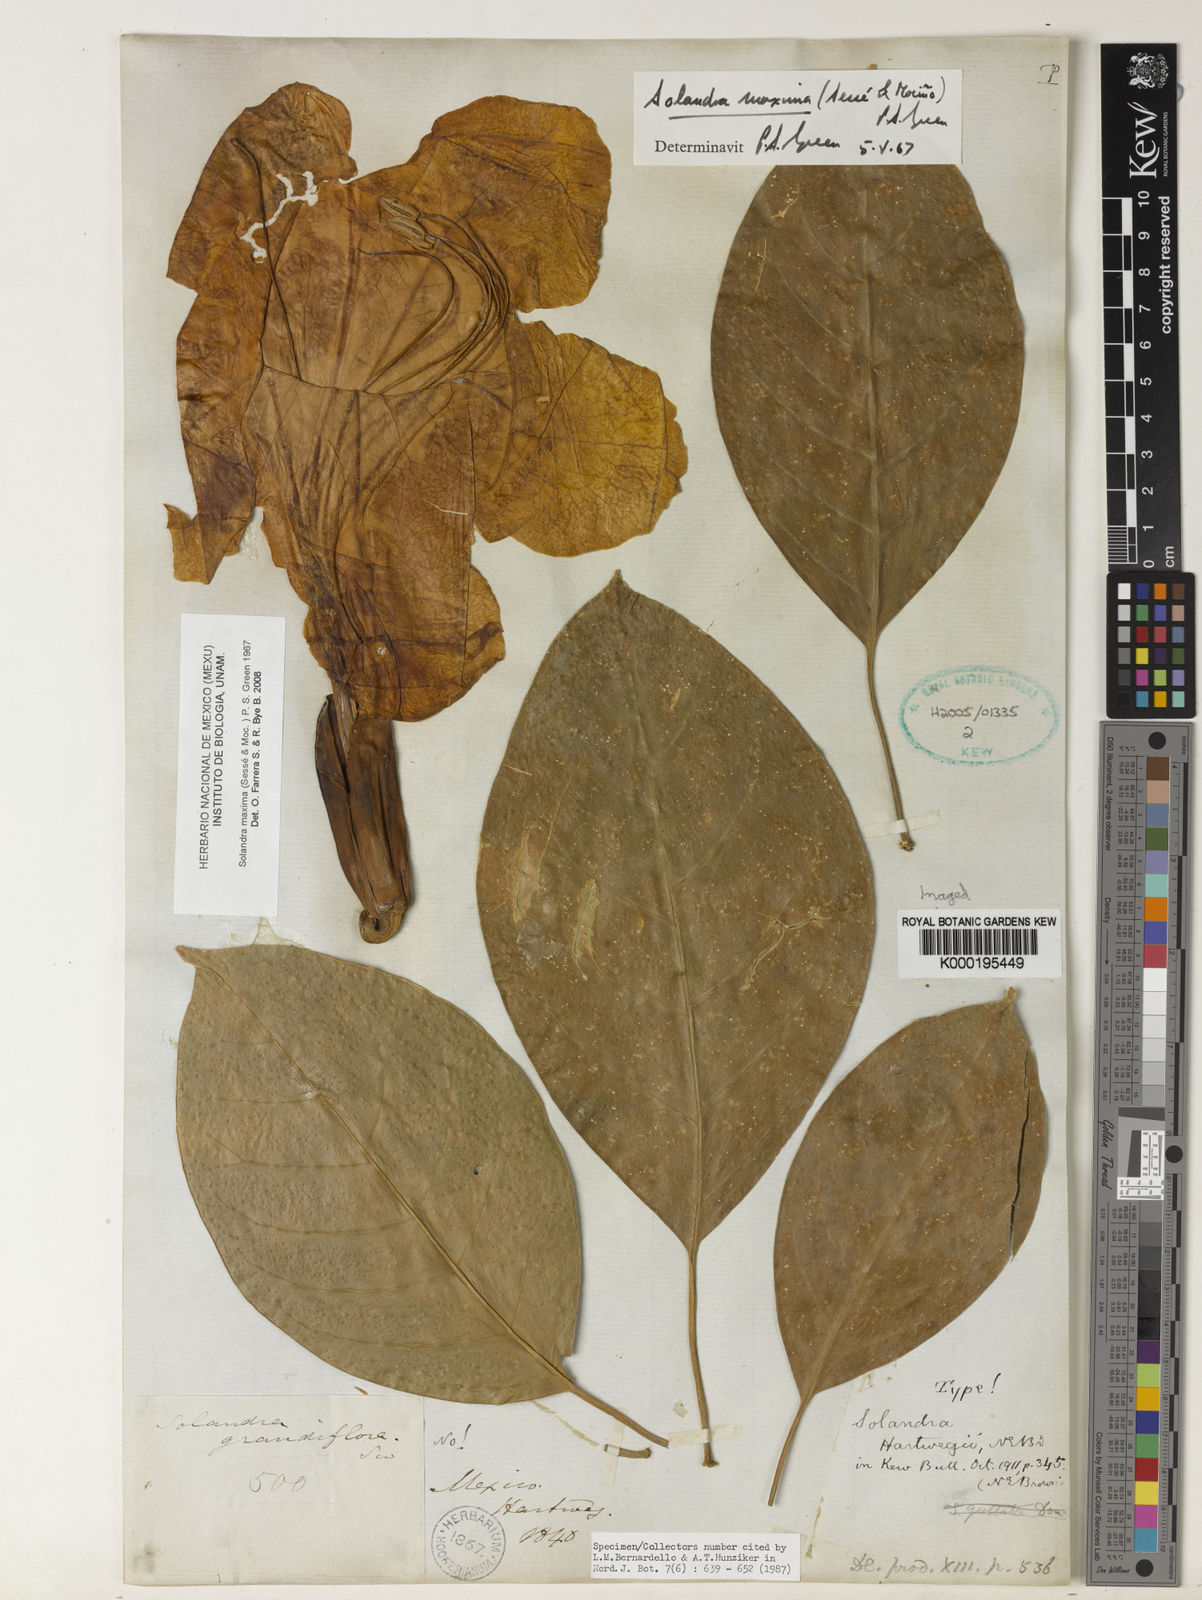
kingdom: Plantae
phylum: Tracheophyta
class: Magnoliopsida
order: Solanales
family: Solanaceae
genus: Solandra
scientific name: Solandra
